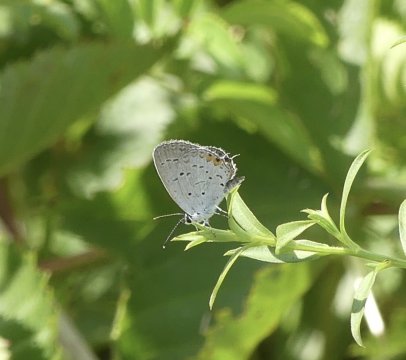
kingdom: Animalia
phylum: Arthropoda
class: Insecta
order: Lepidoptera
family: Lycaenidae
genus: Elkalyce
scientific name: Elkalyce comyntas
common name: Eastern Tailed-Blue
